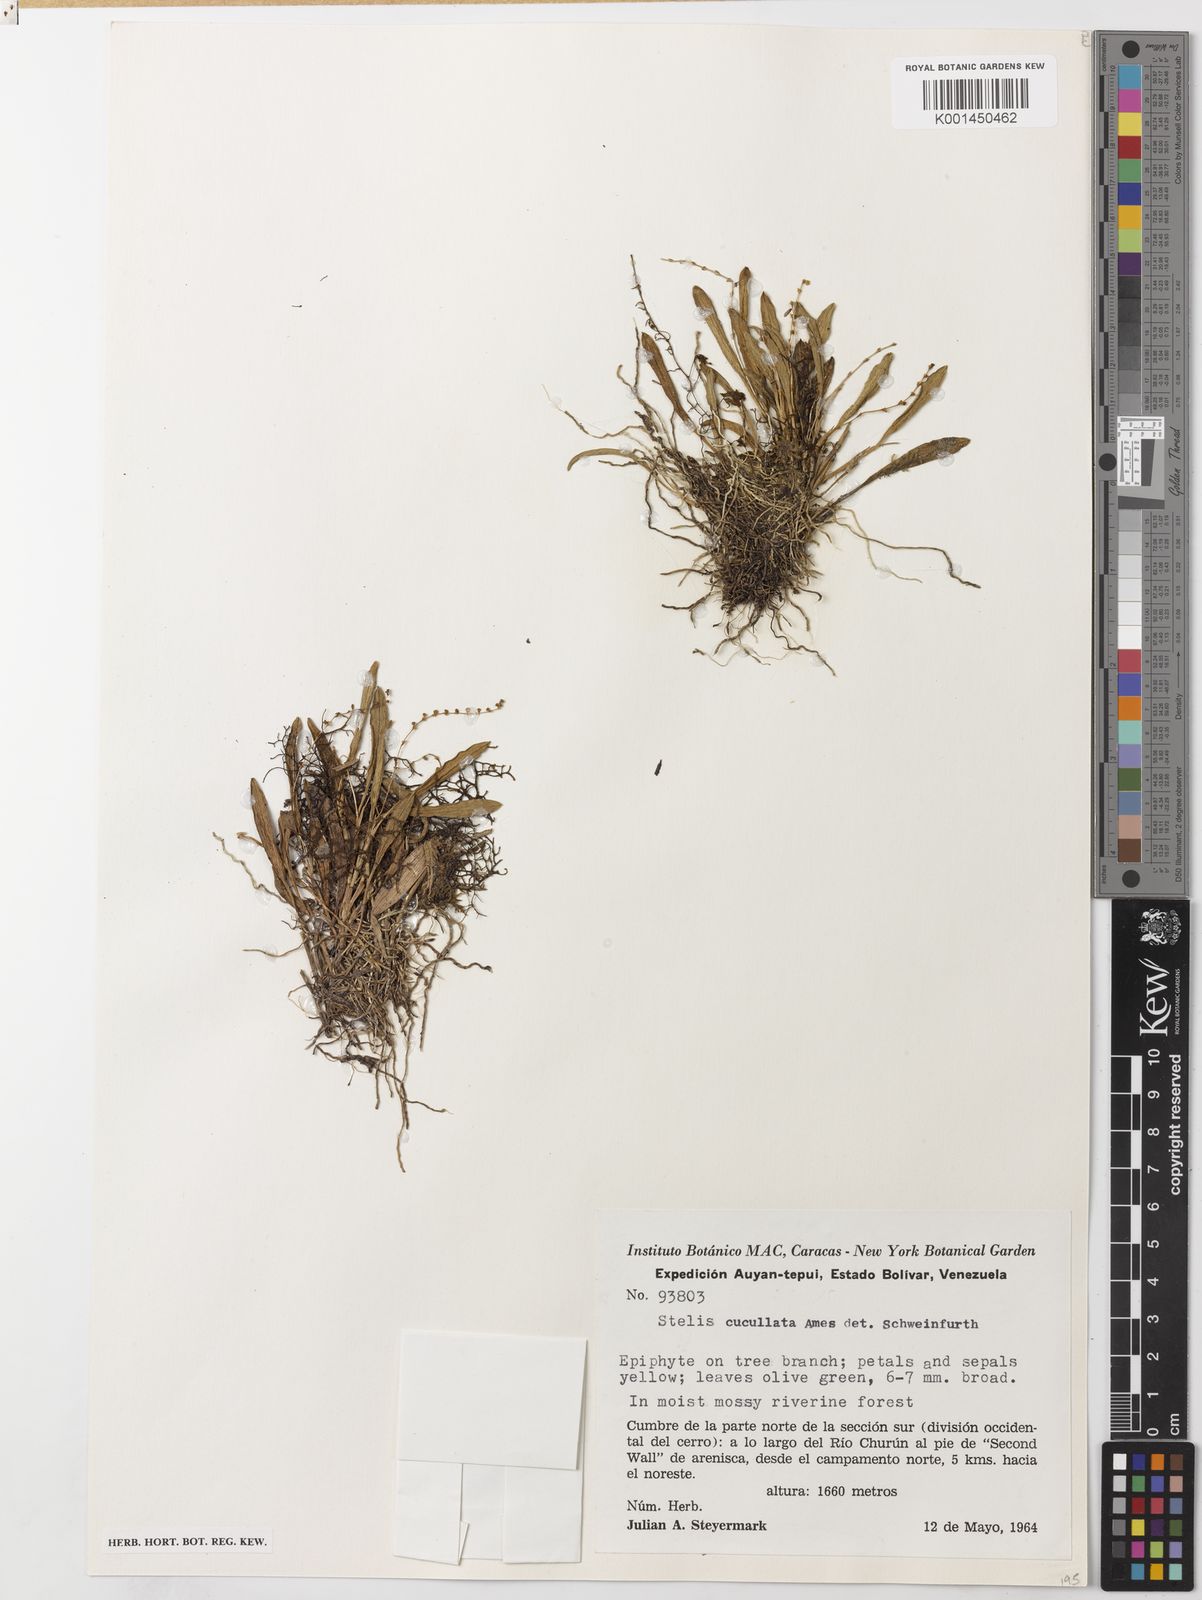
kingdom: Plantae
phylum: Tracheophyta
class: Liliopsida
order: Asparagales
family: Orchidaceae
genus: Stelis
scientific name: Stelis cucullata
